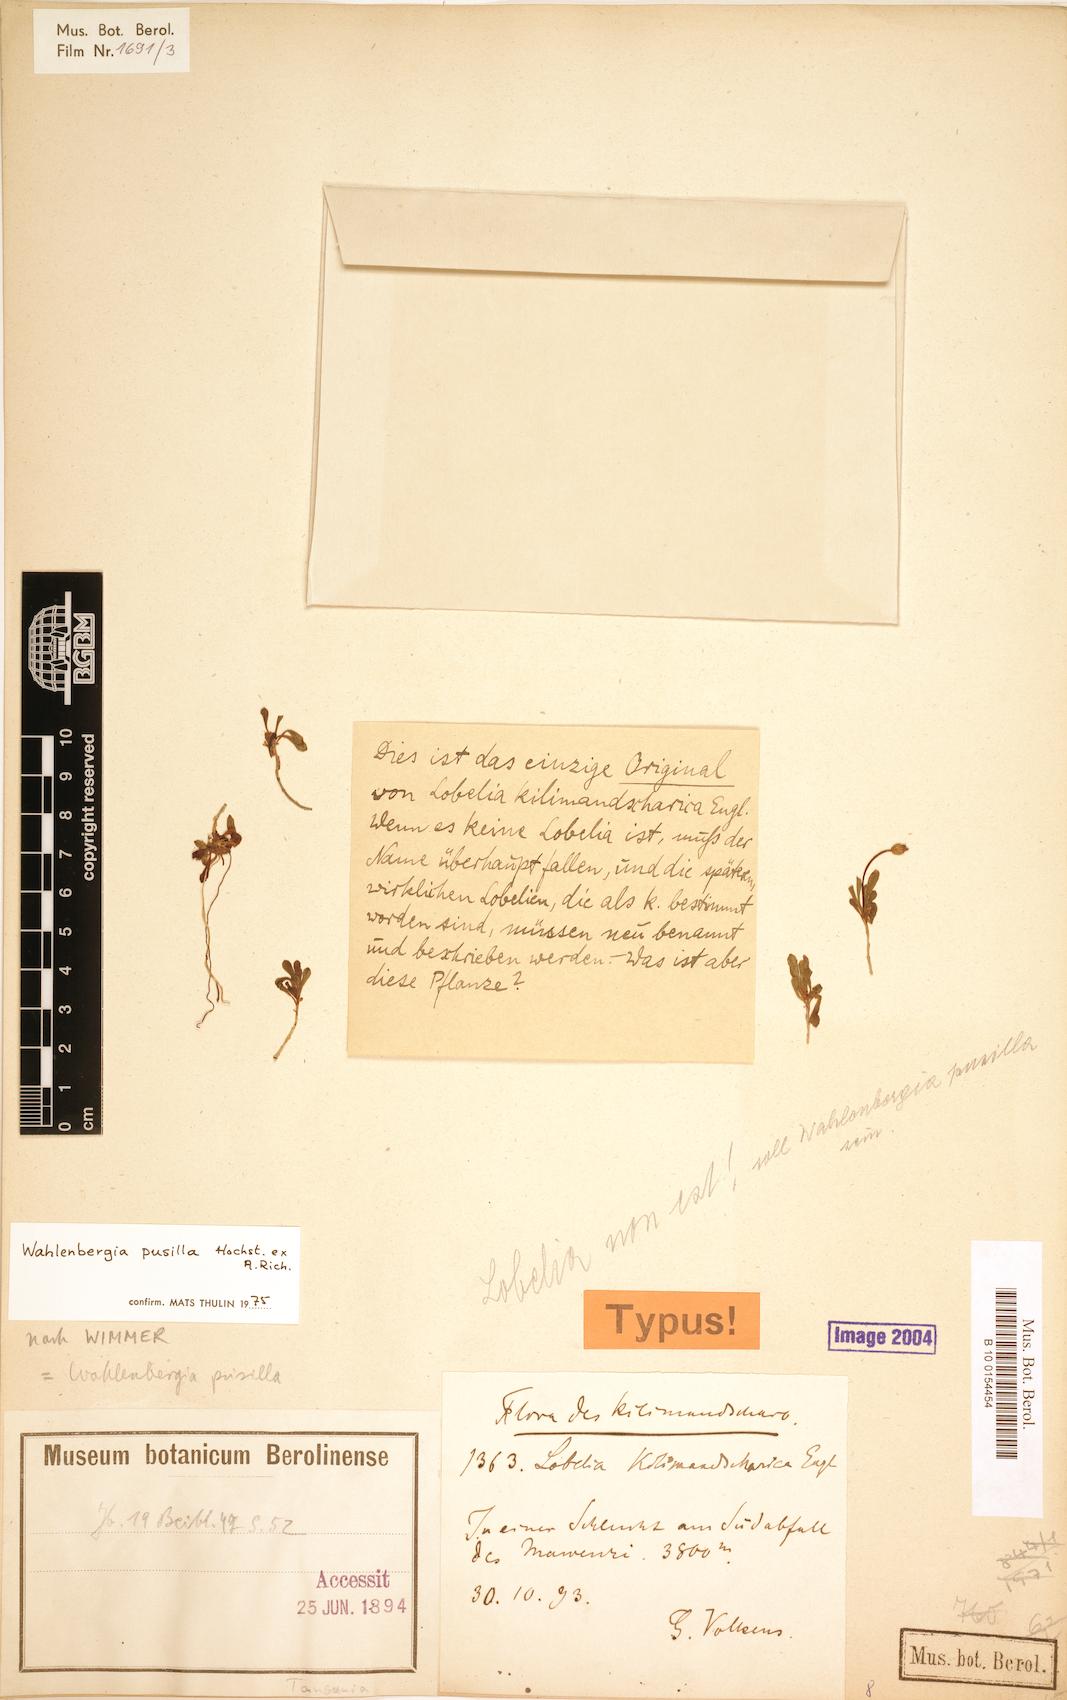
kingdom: Plantae
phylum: Tracheophyta
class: Magnoliopsida
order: Asterales
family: Campanulaceae
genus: Wahlenbergia
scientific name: Wahlenbergia pusilla
